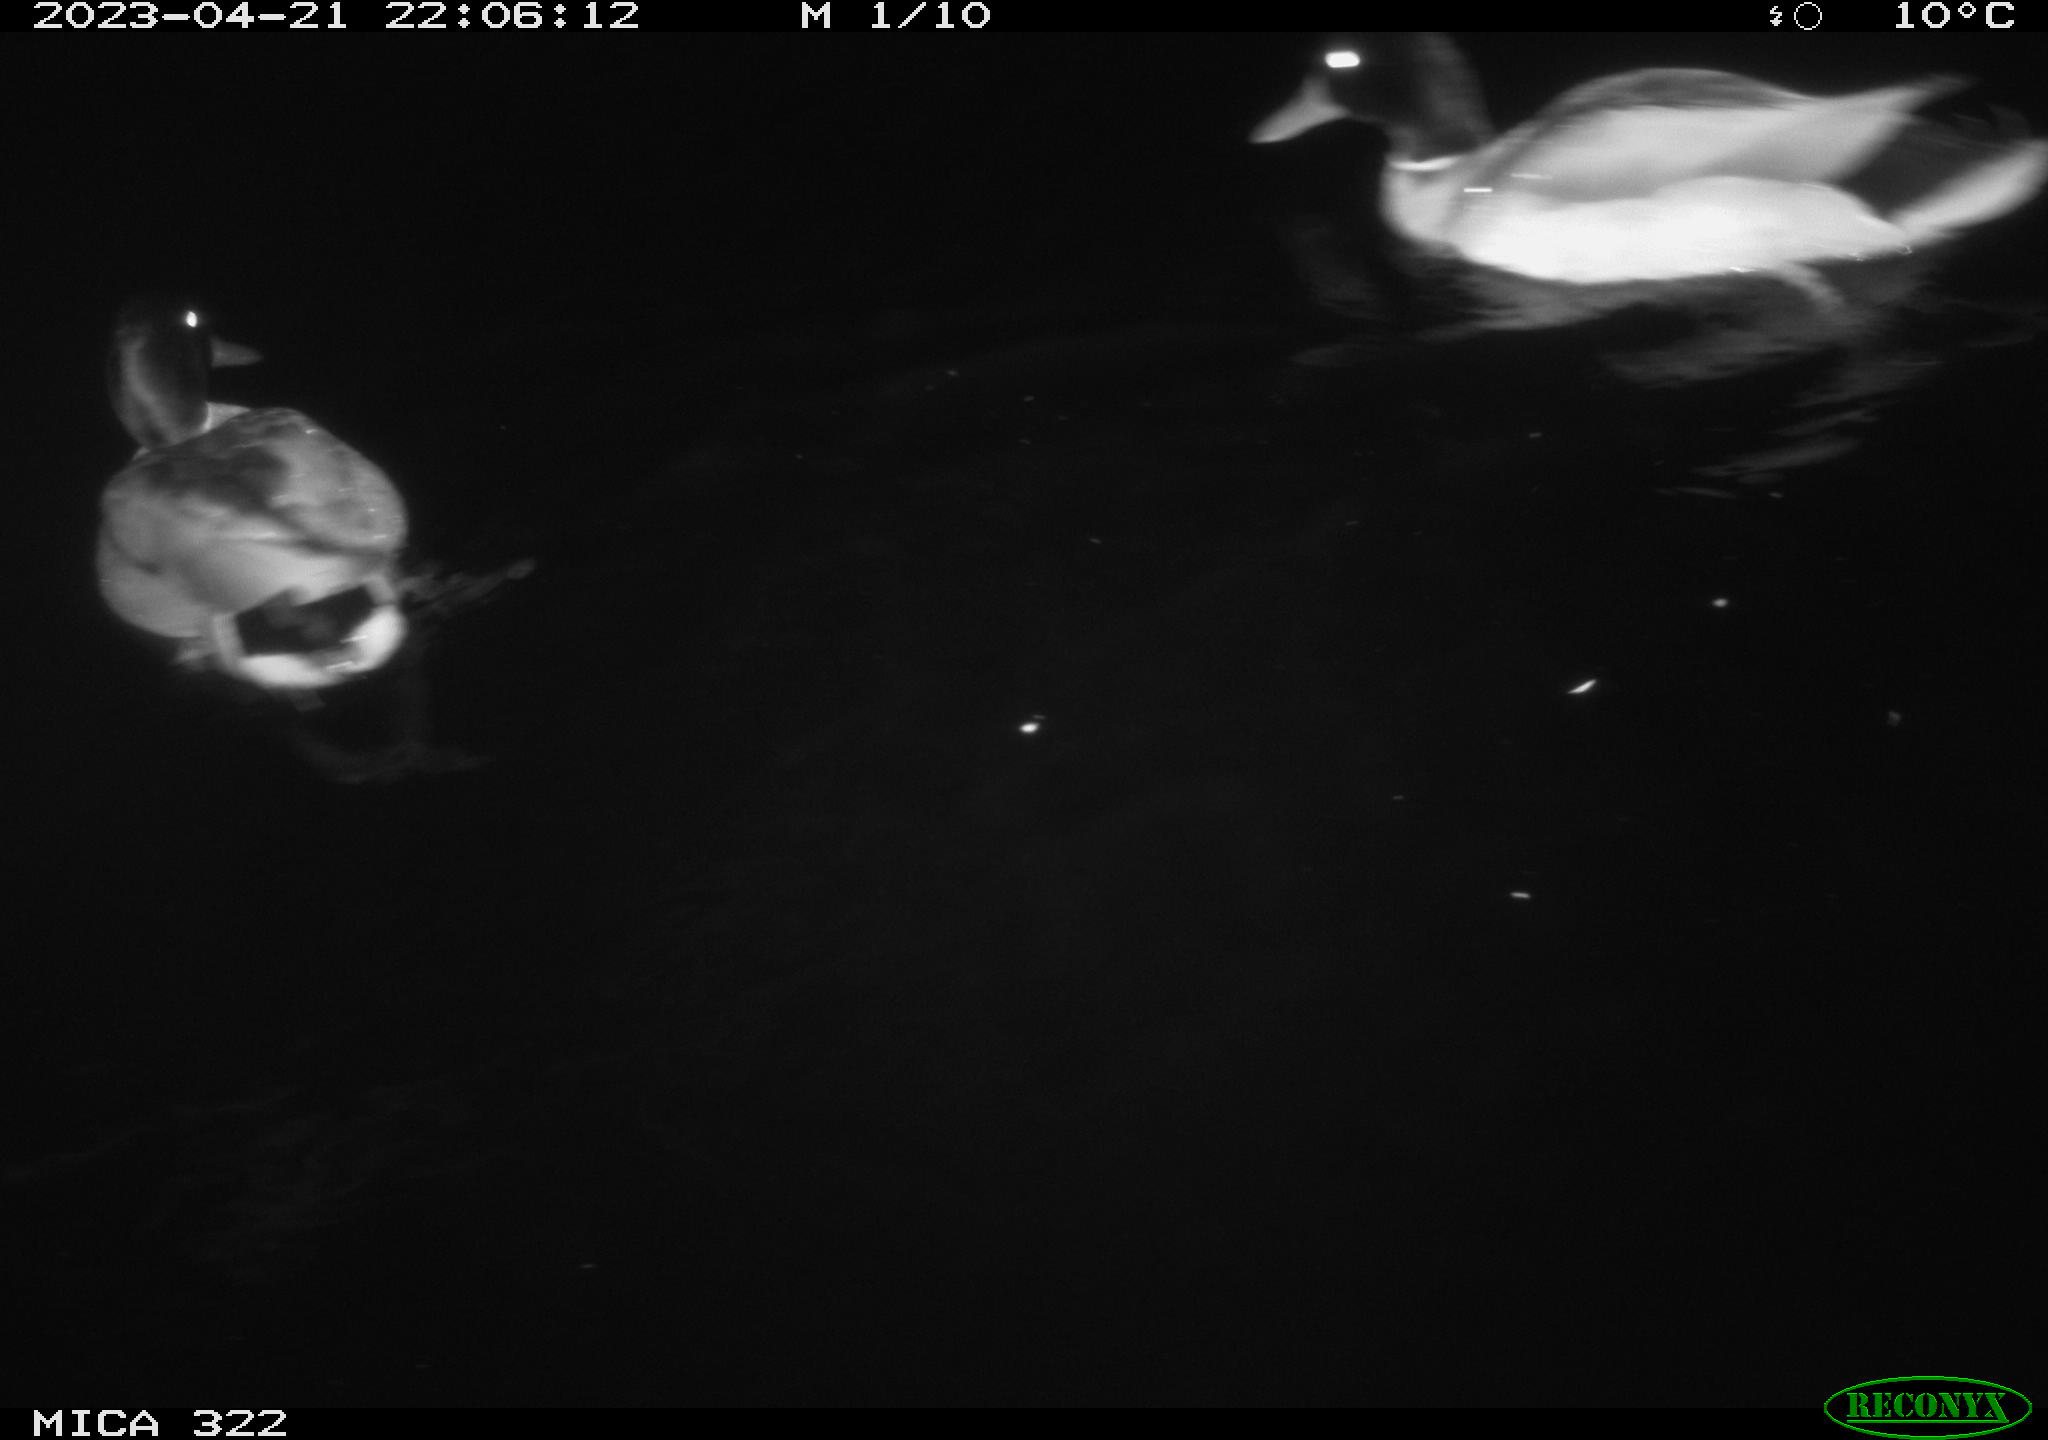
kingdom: Animalia
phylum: Chordata
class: Aves
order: Anseriformes
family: Anatidae
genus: Anas
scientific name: Anas
